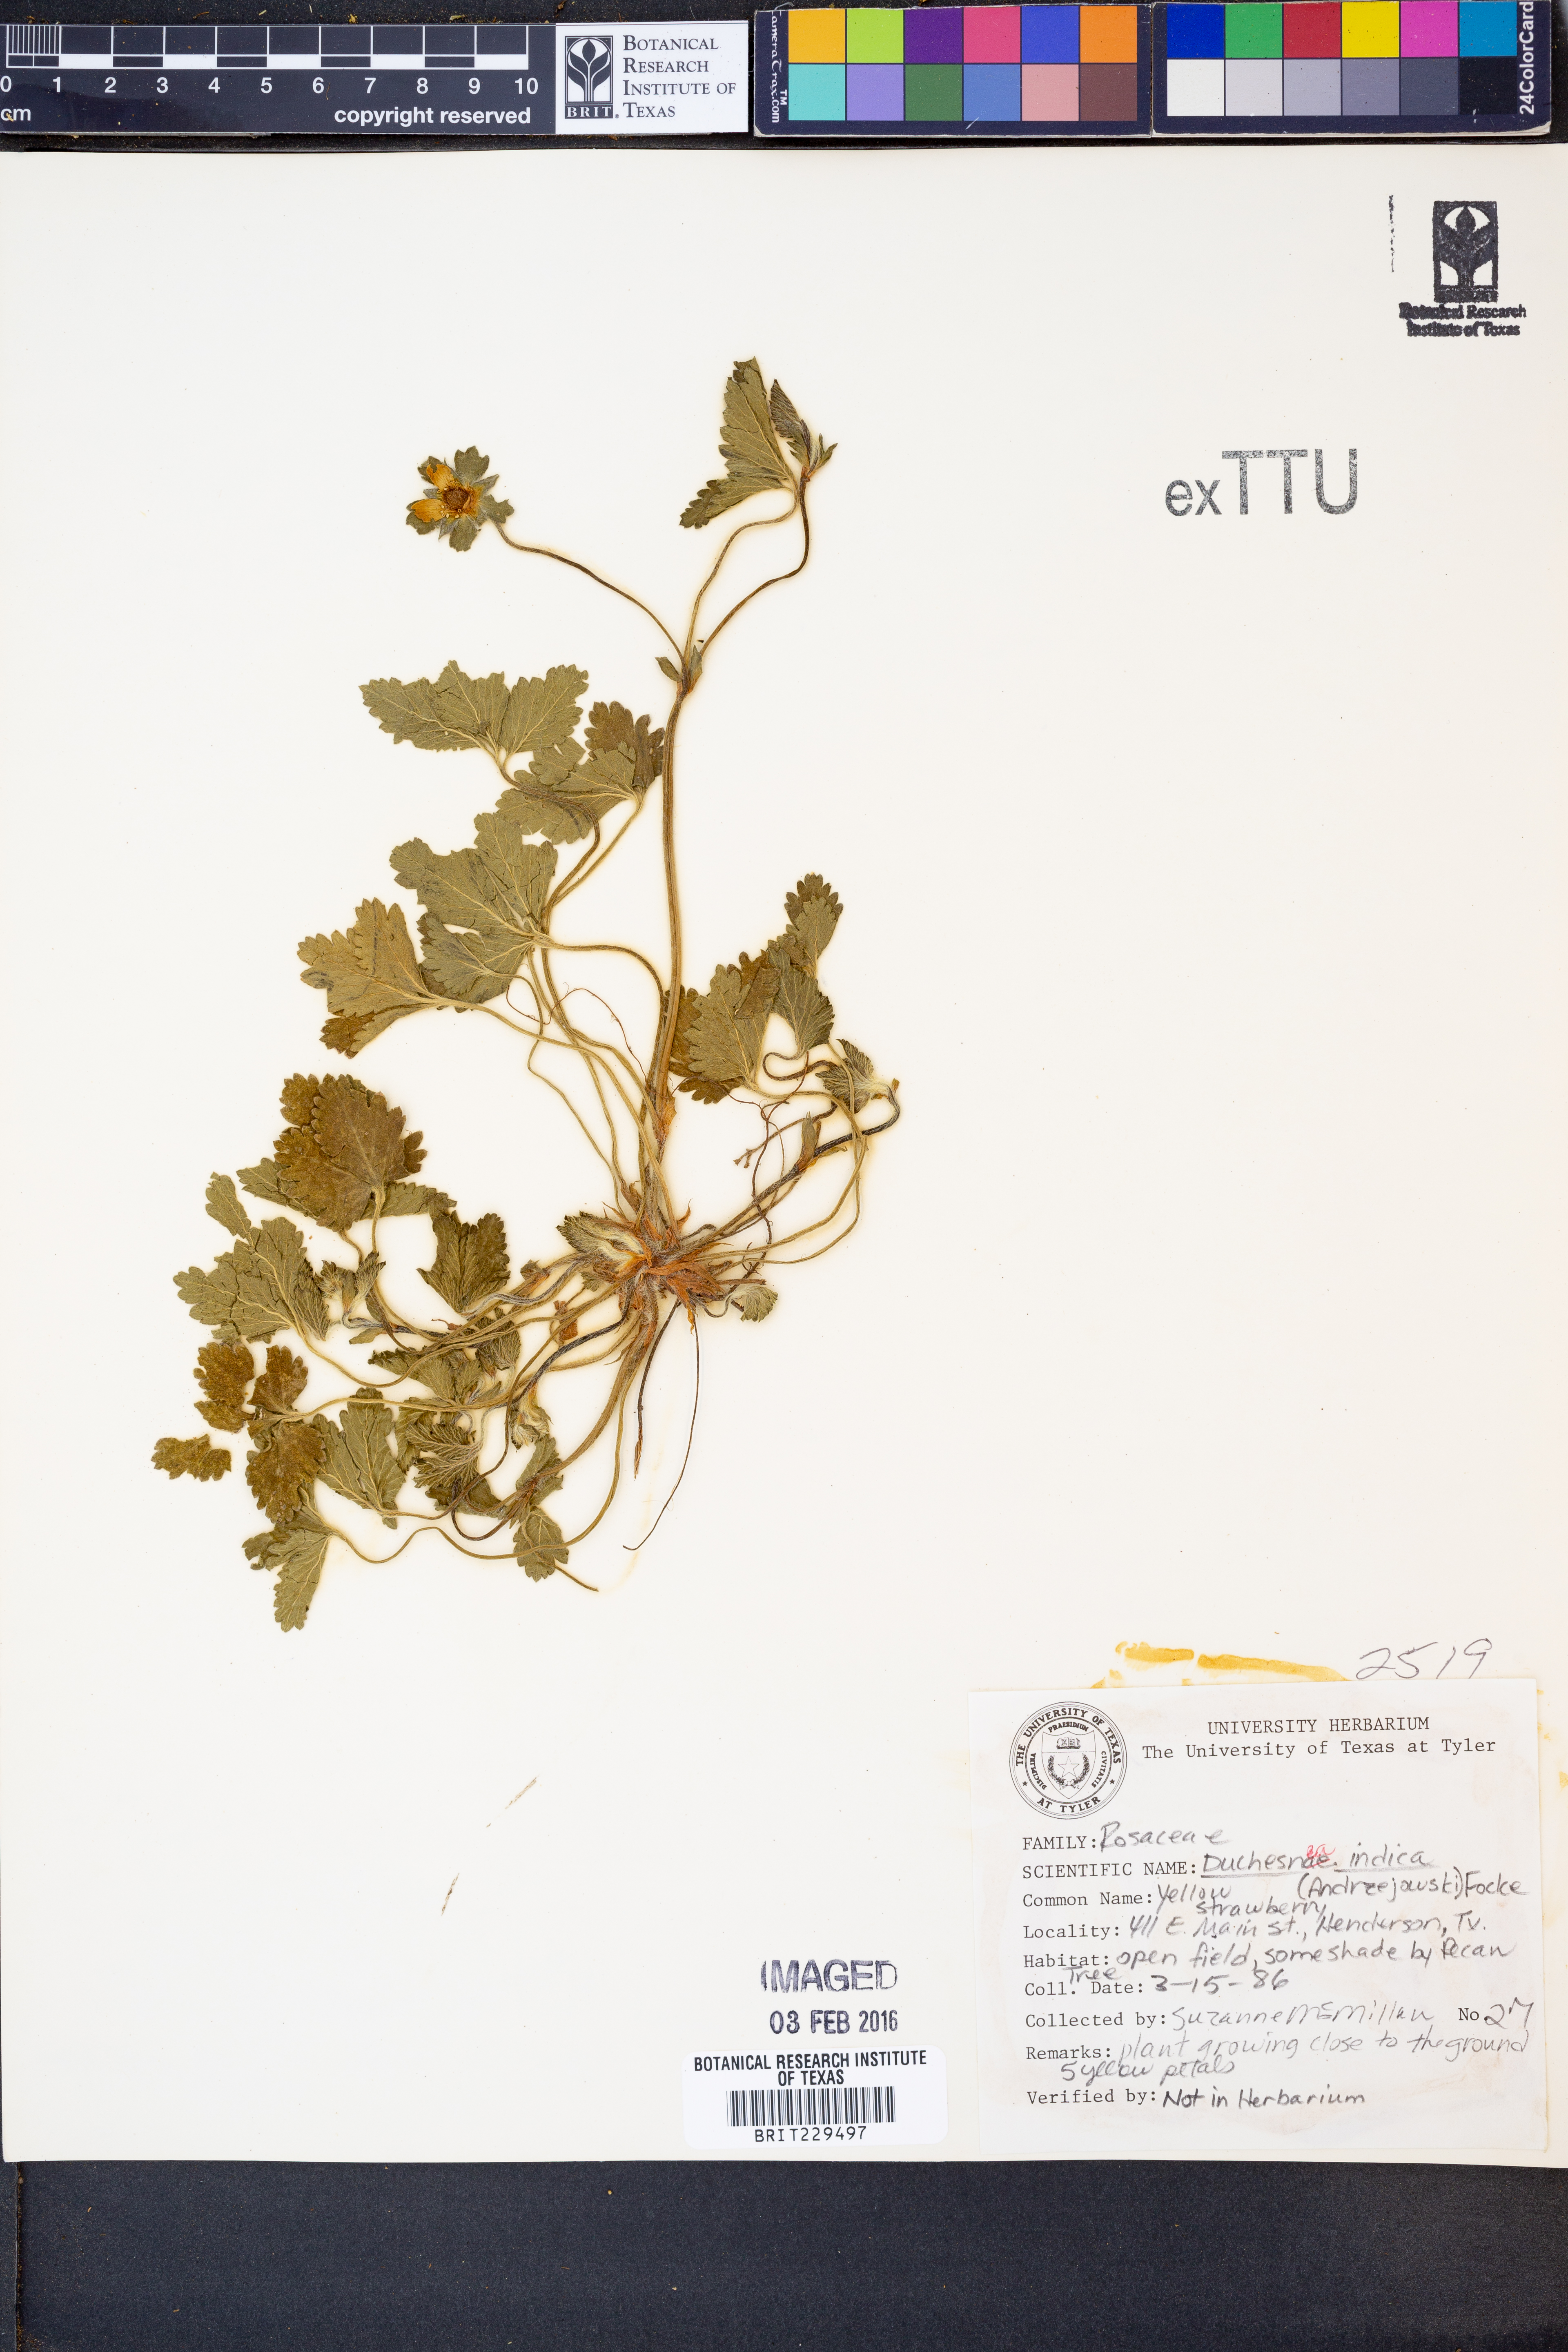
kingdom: Plantae
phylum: Tracheophyta
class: Magnoliopsida
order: Rosales
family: Rosaceae
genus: Potentilla
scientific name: Potentilla indica
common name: Yellow-flowered strawberry
